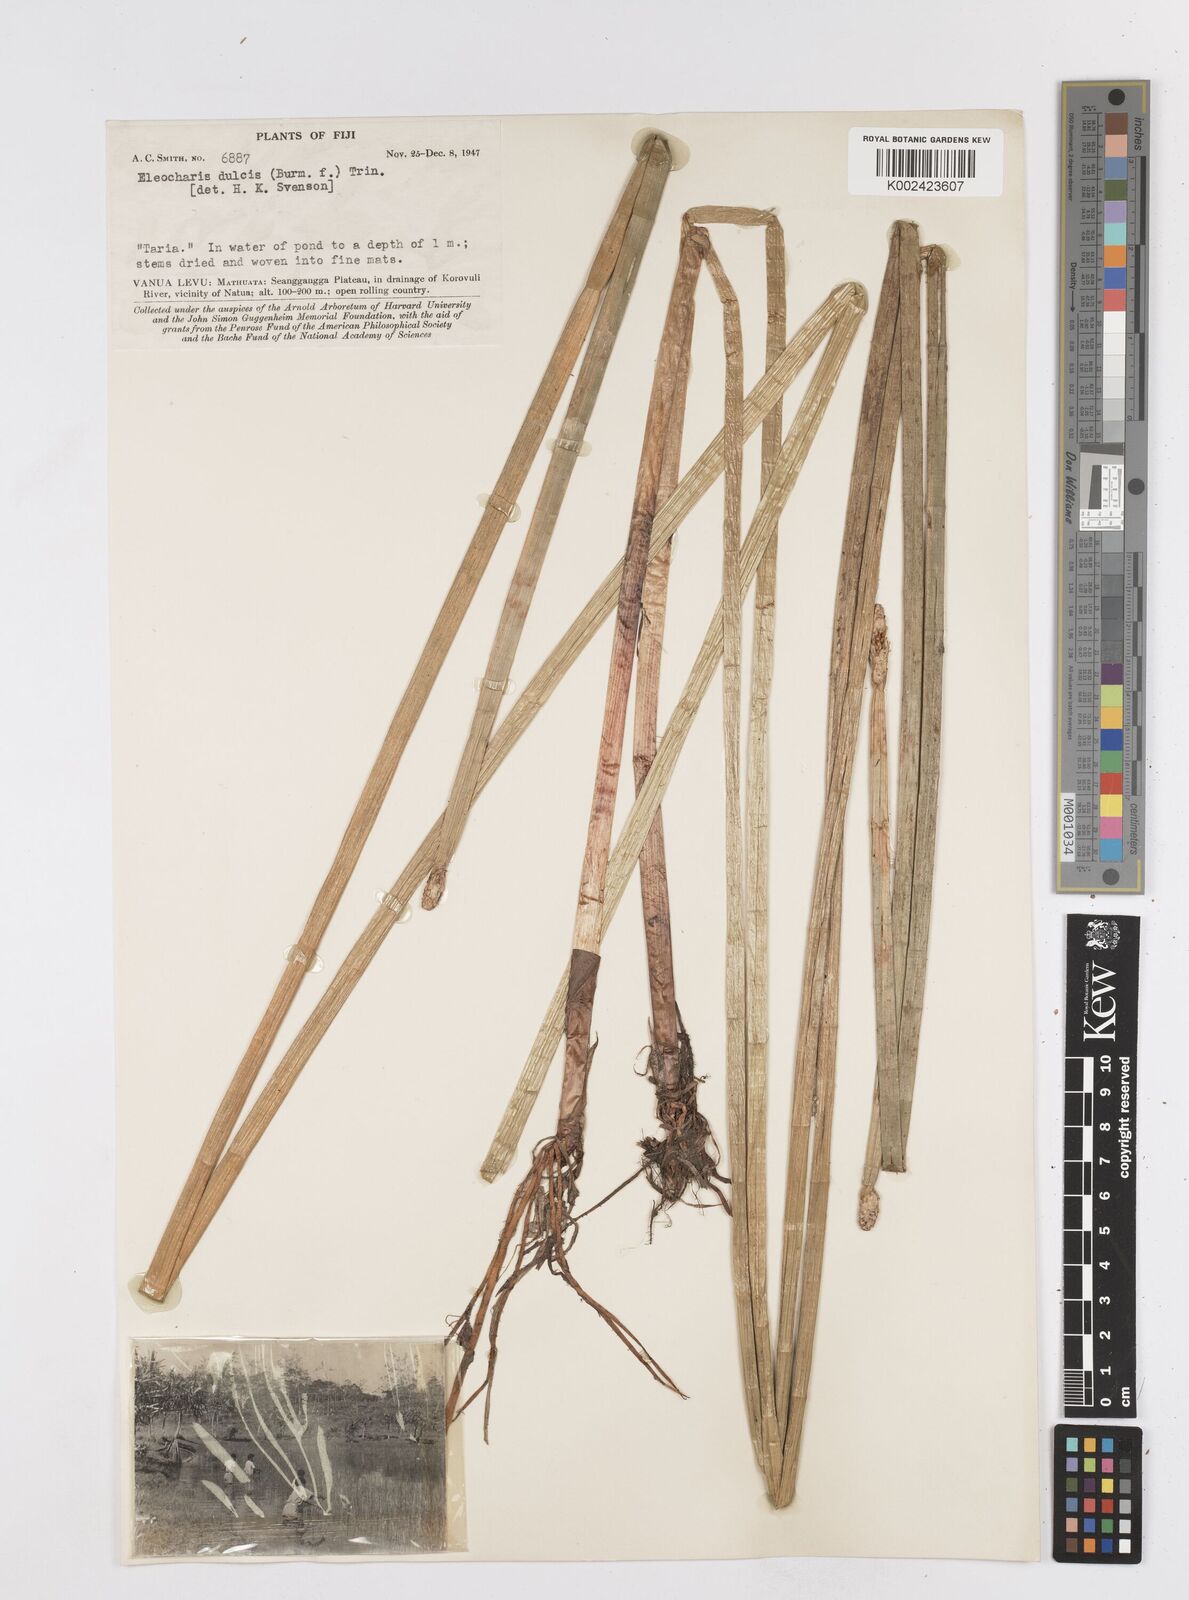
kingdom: Plantae
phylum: Tracheophyta
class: Liliopsida
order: Poales
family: Cyperaceae
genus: Eleocharis
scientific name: Eleocharis dulcis
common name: Chinese water chestnut
